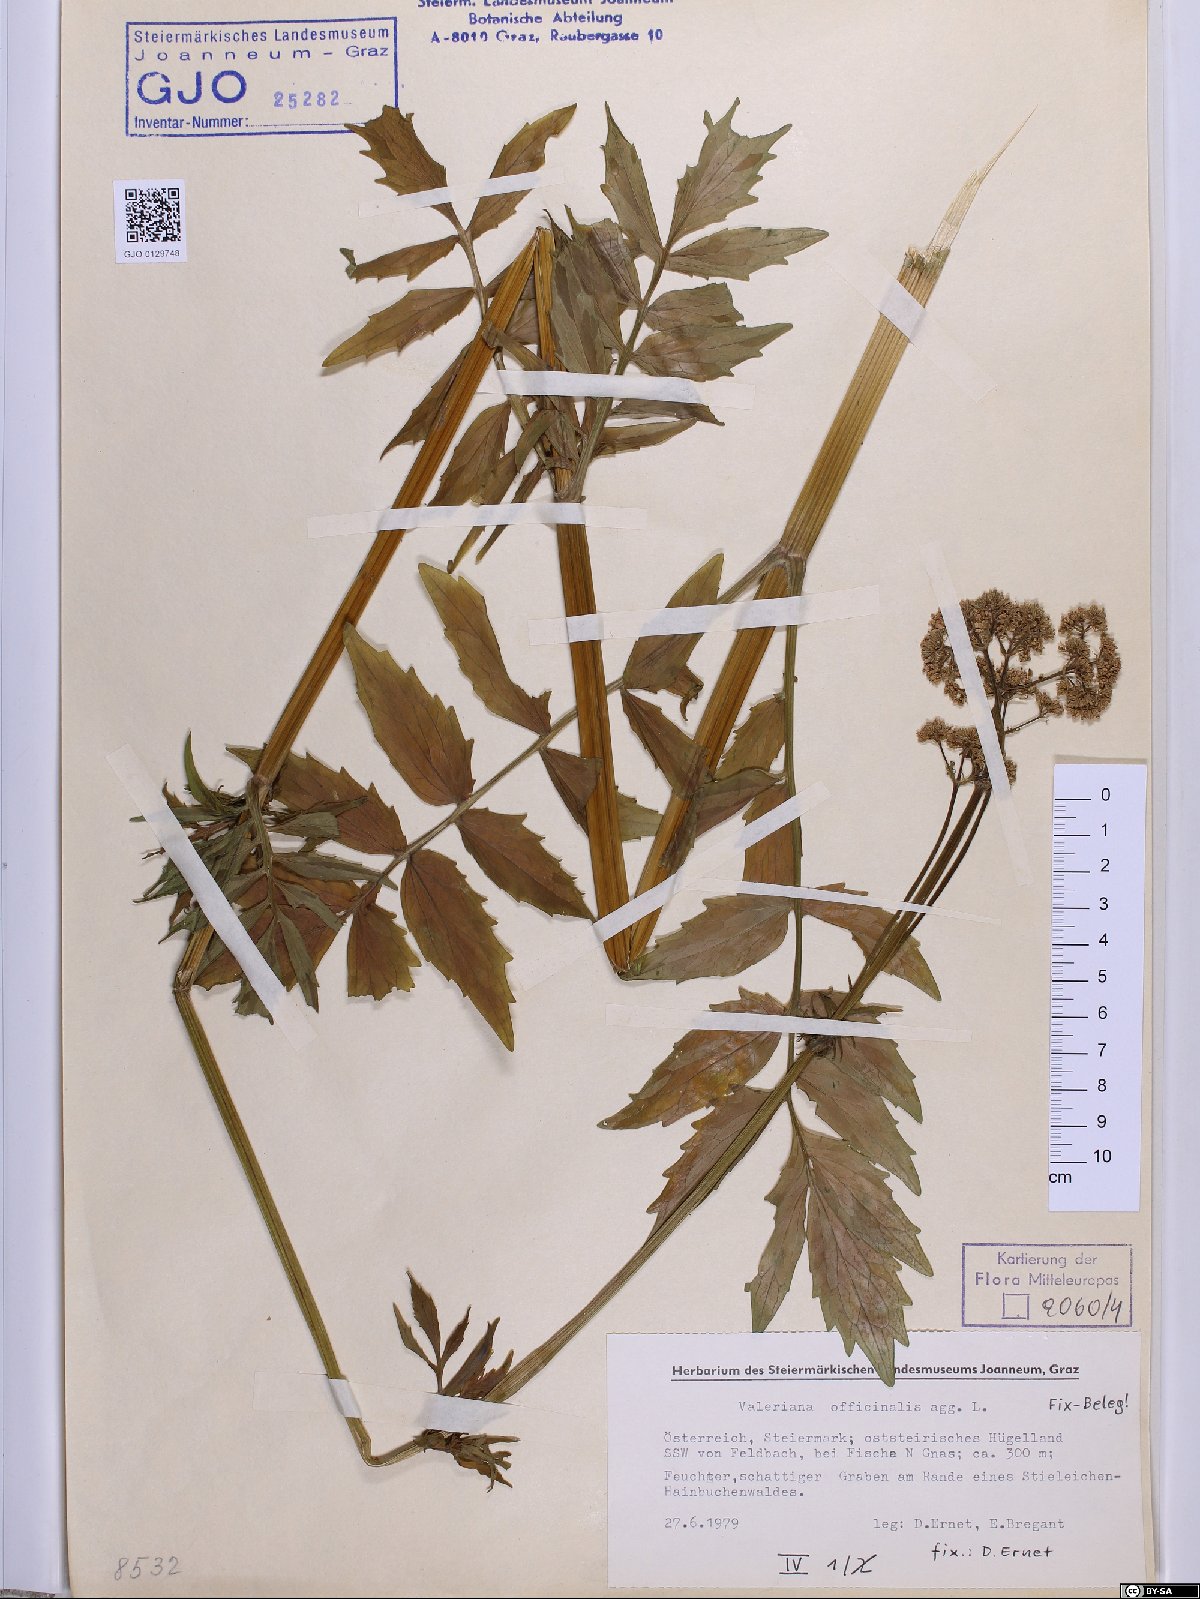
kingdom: Plantae
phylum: Tracheophyta
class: Magnoliopsida
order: Dipsacales
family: Caprifoliaceae
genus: Valeriana
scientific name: Valeriana officinalis
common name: Common valerian
